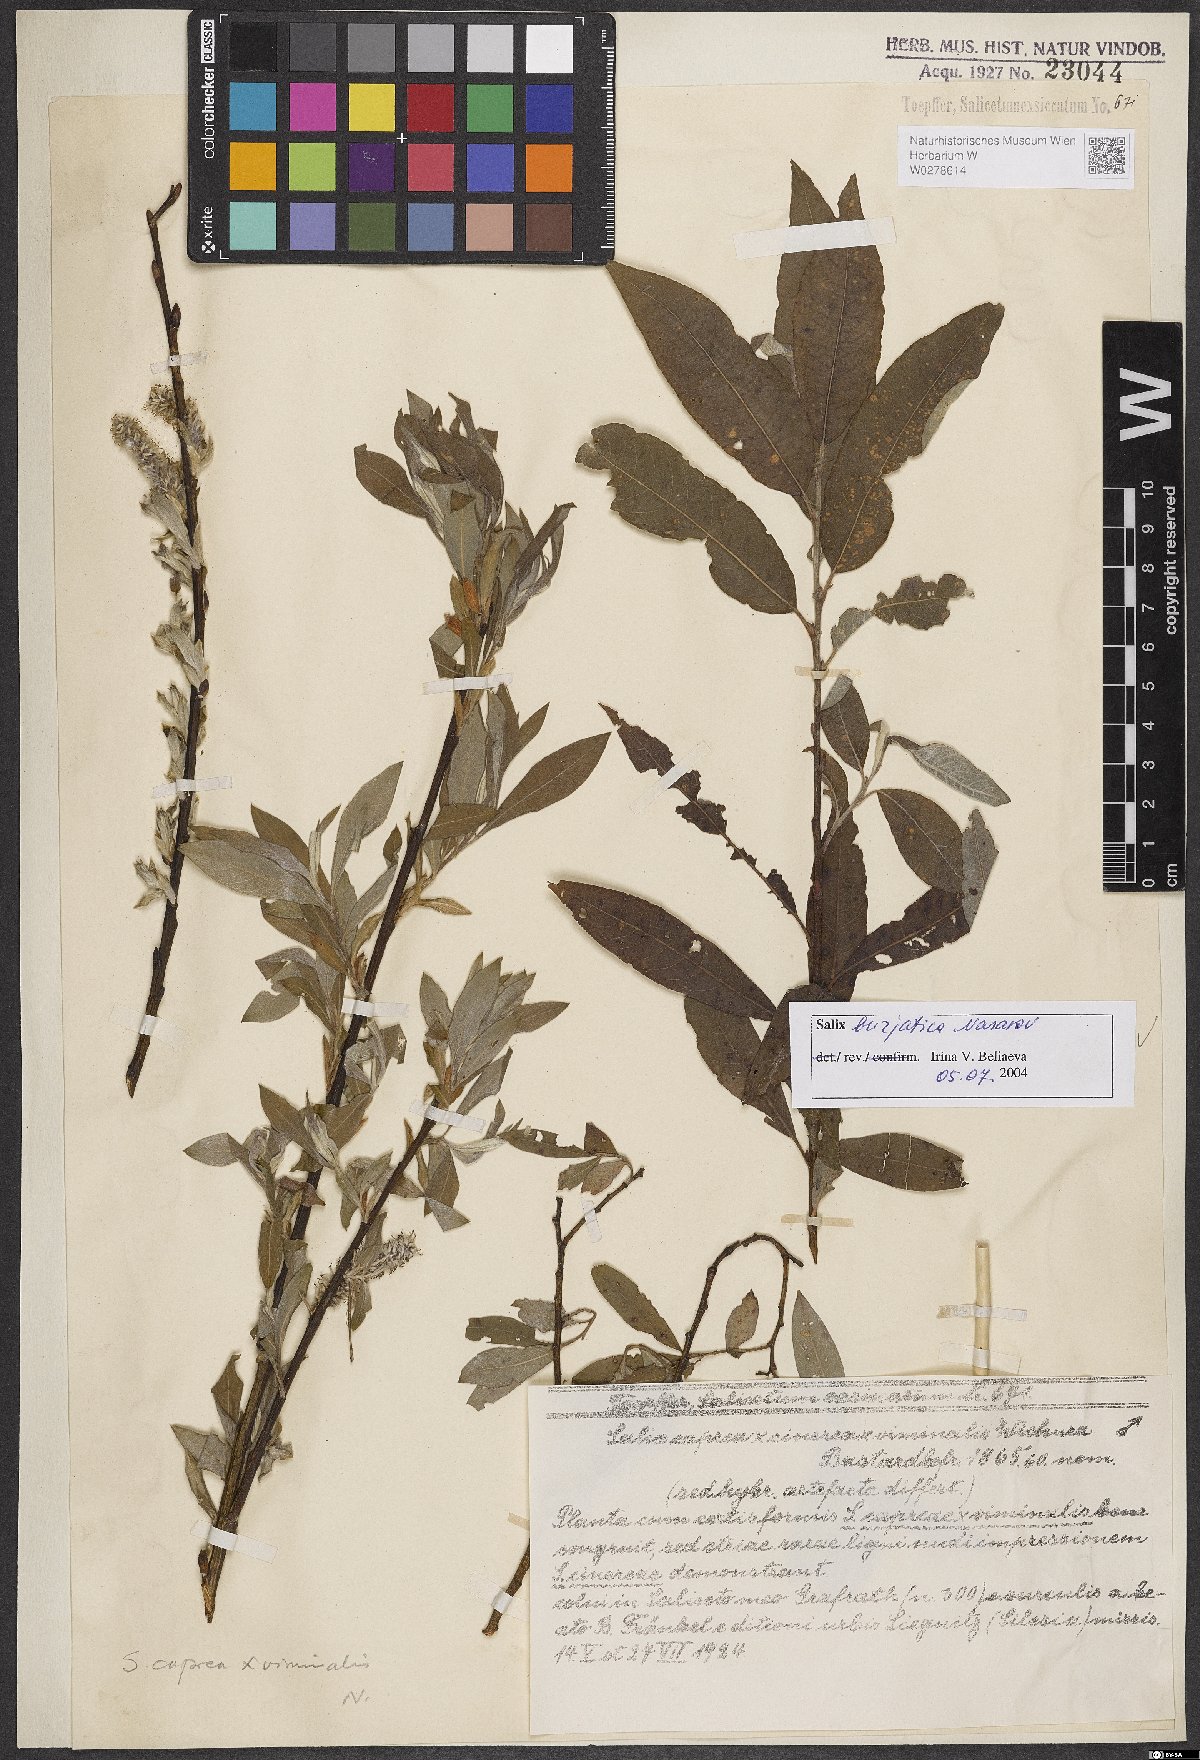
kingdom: Plantae
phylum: Tracheophyta
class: Magnoliopsida
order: Malpighiales
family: Salicaceae
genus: Salix
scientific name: Salix gmelinii
